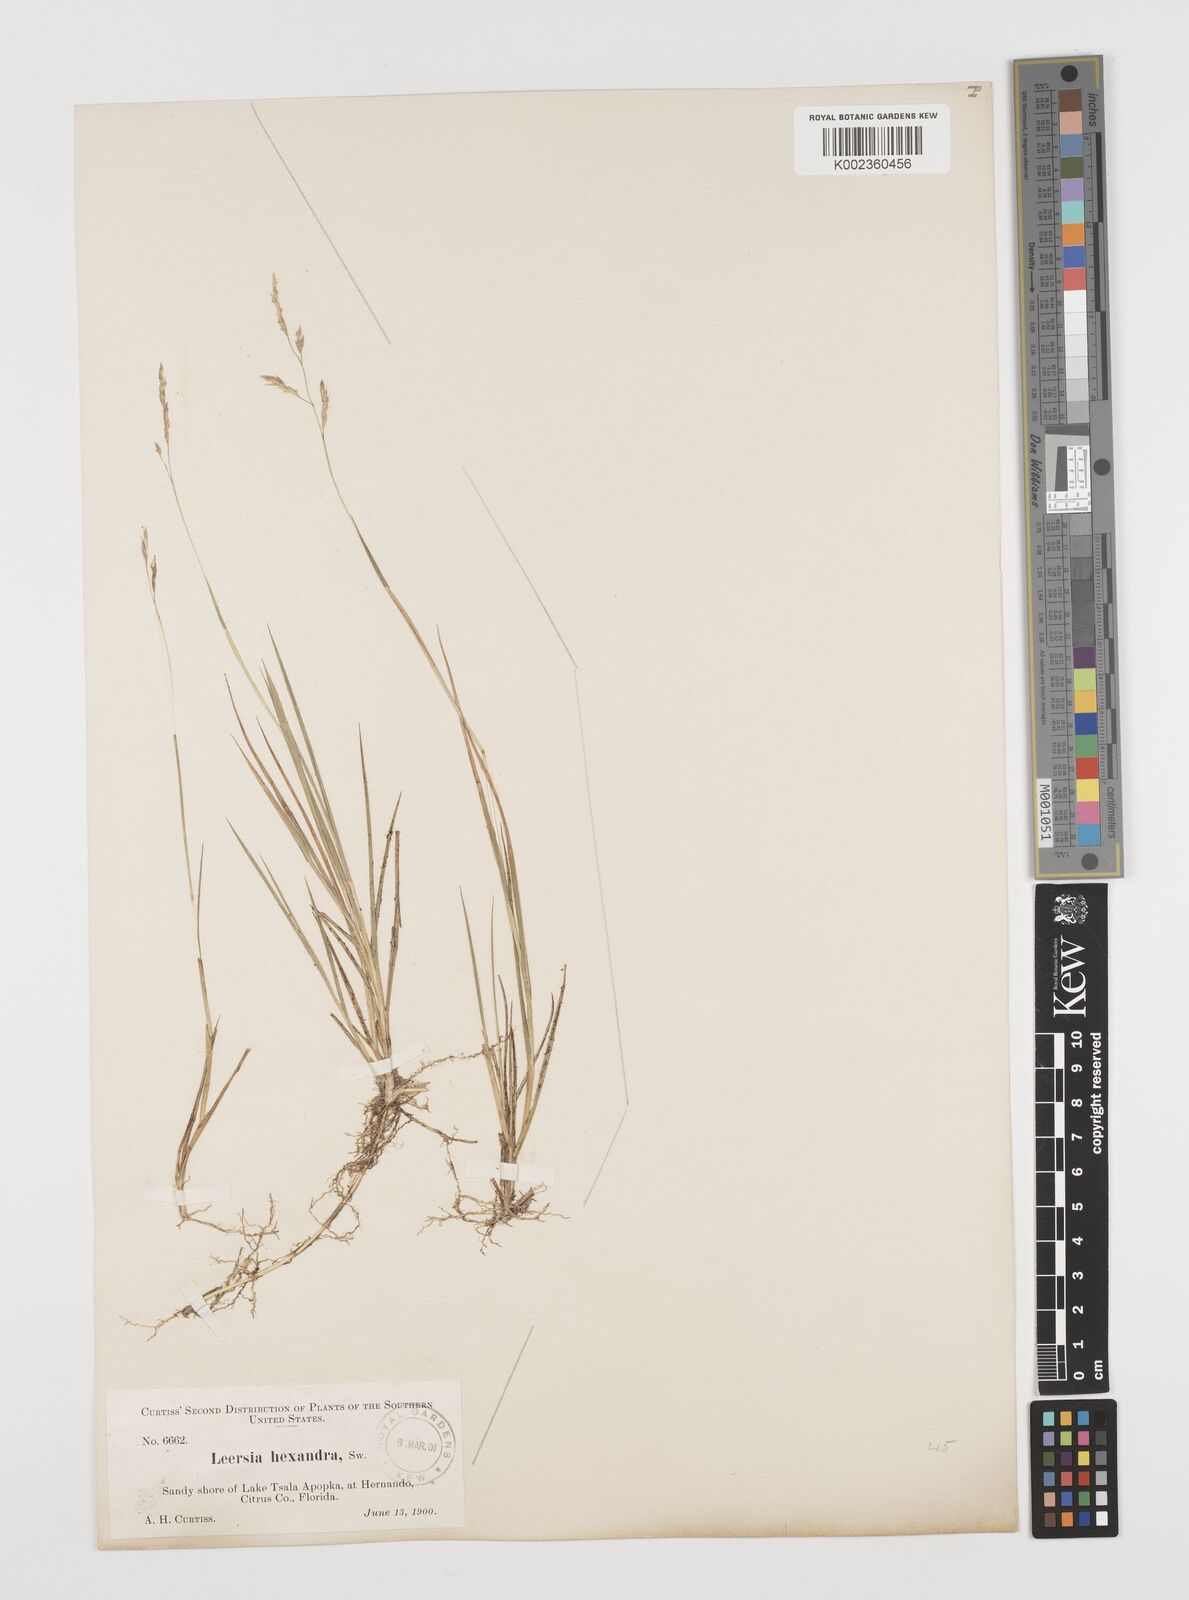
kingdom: Plantae
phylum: Tracheophyta
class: Liliopsida
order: Poales
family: Poaceae
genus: Leersia
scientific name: Leersia hexandra
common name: Southern cut grass
